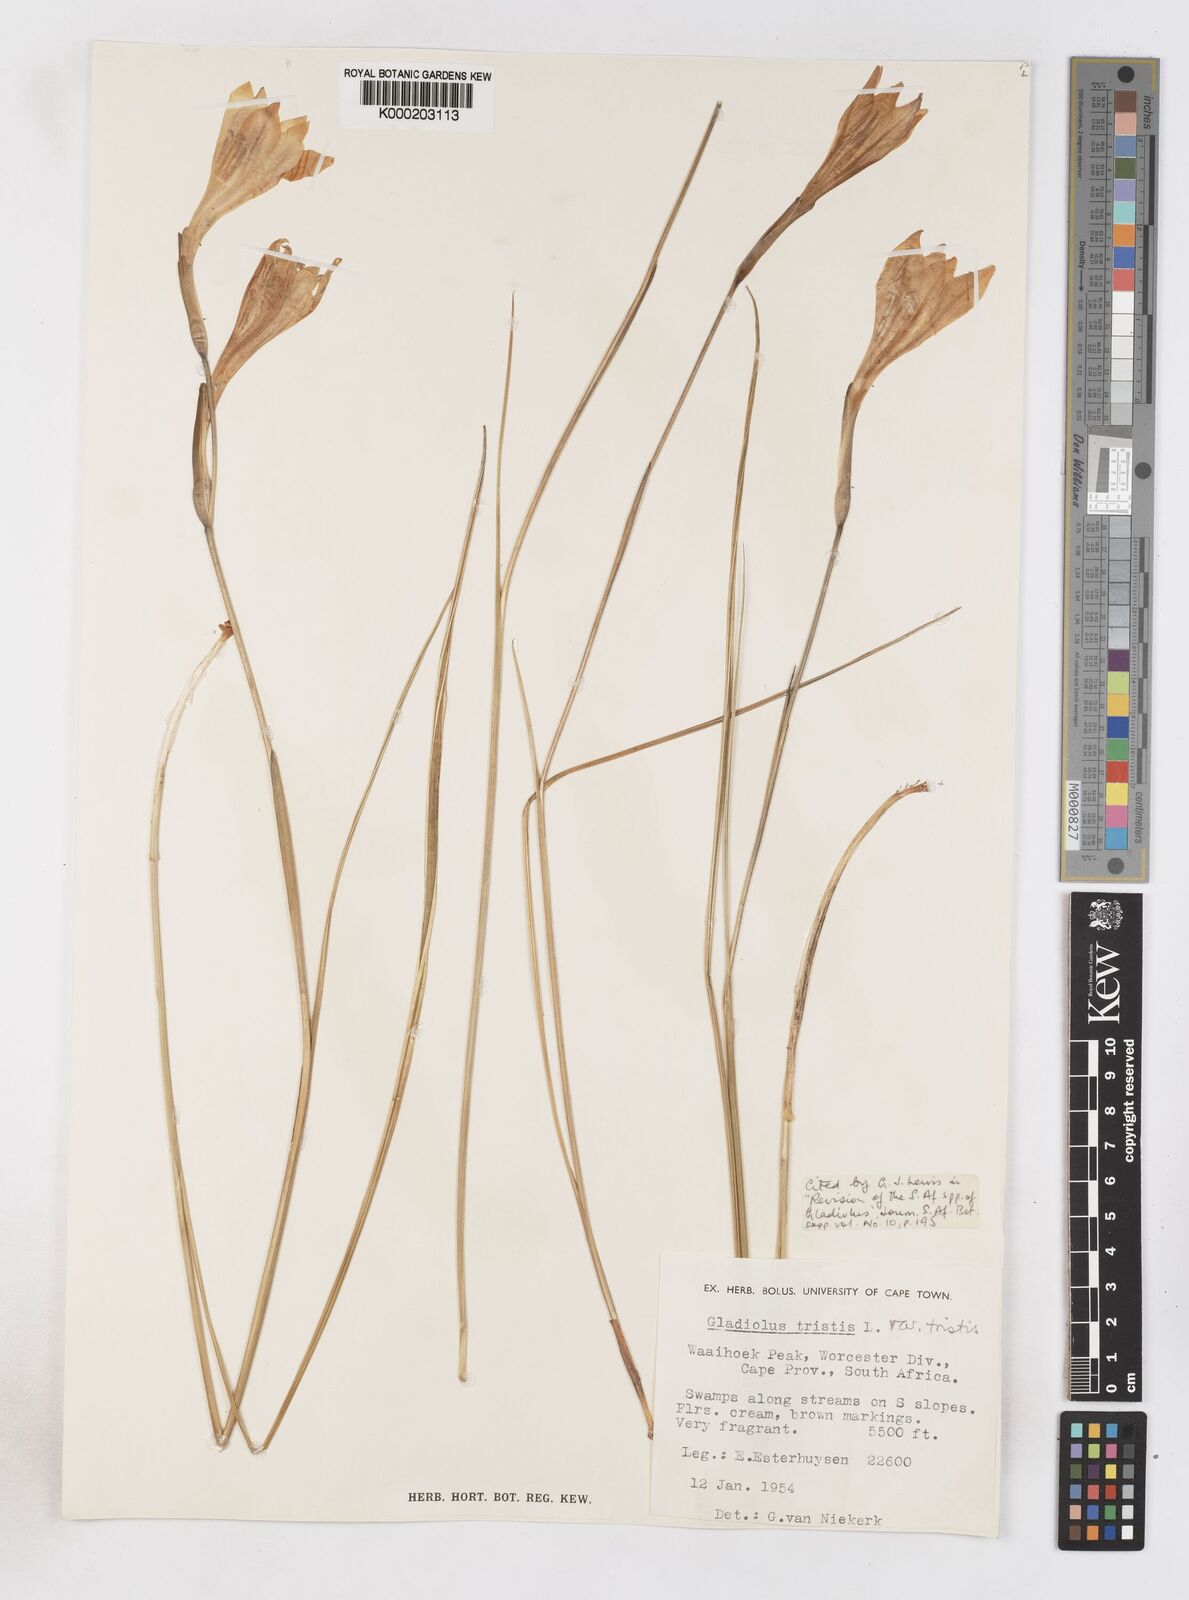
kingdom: Plantae
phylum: Tracheophyta
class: Liliopsida
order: Asparagales
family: Iridaceae
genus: Gladiolus
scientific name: Gladiolus tristis
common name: Ever-flowering gladiolus
